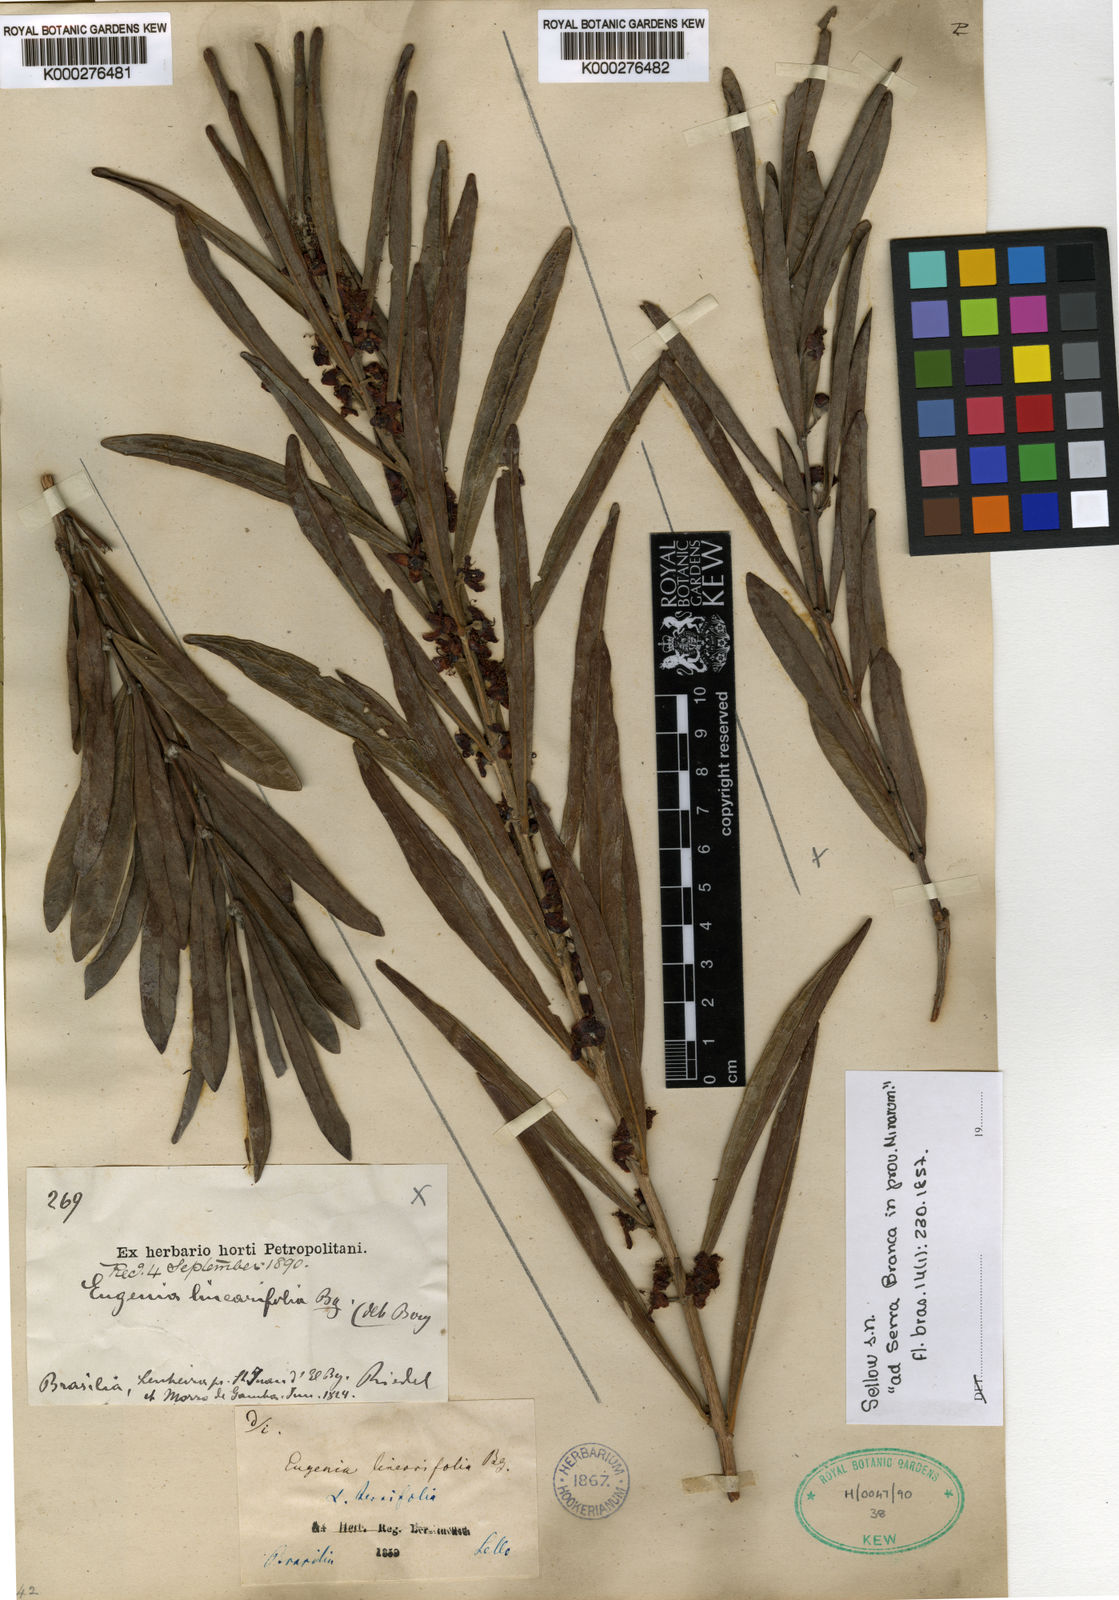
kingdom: Plantae
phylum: Tracheophyta
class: Magnoliopsida
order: Myrtales
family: Myrtaceae
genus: Eugenia
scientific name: Eugenia punicifolia
